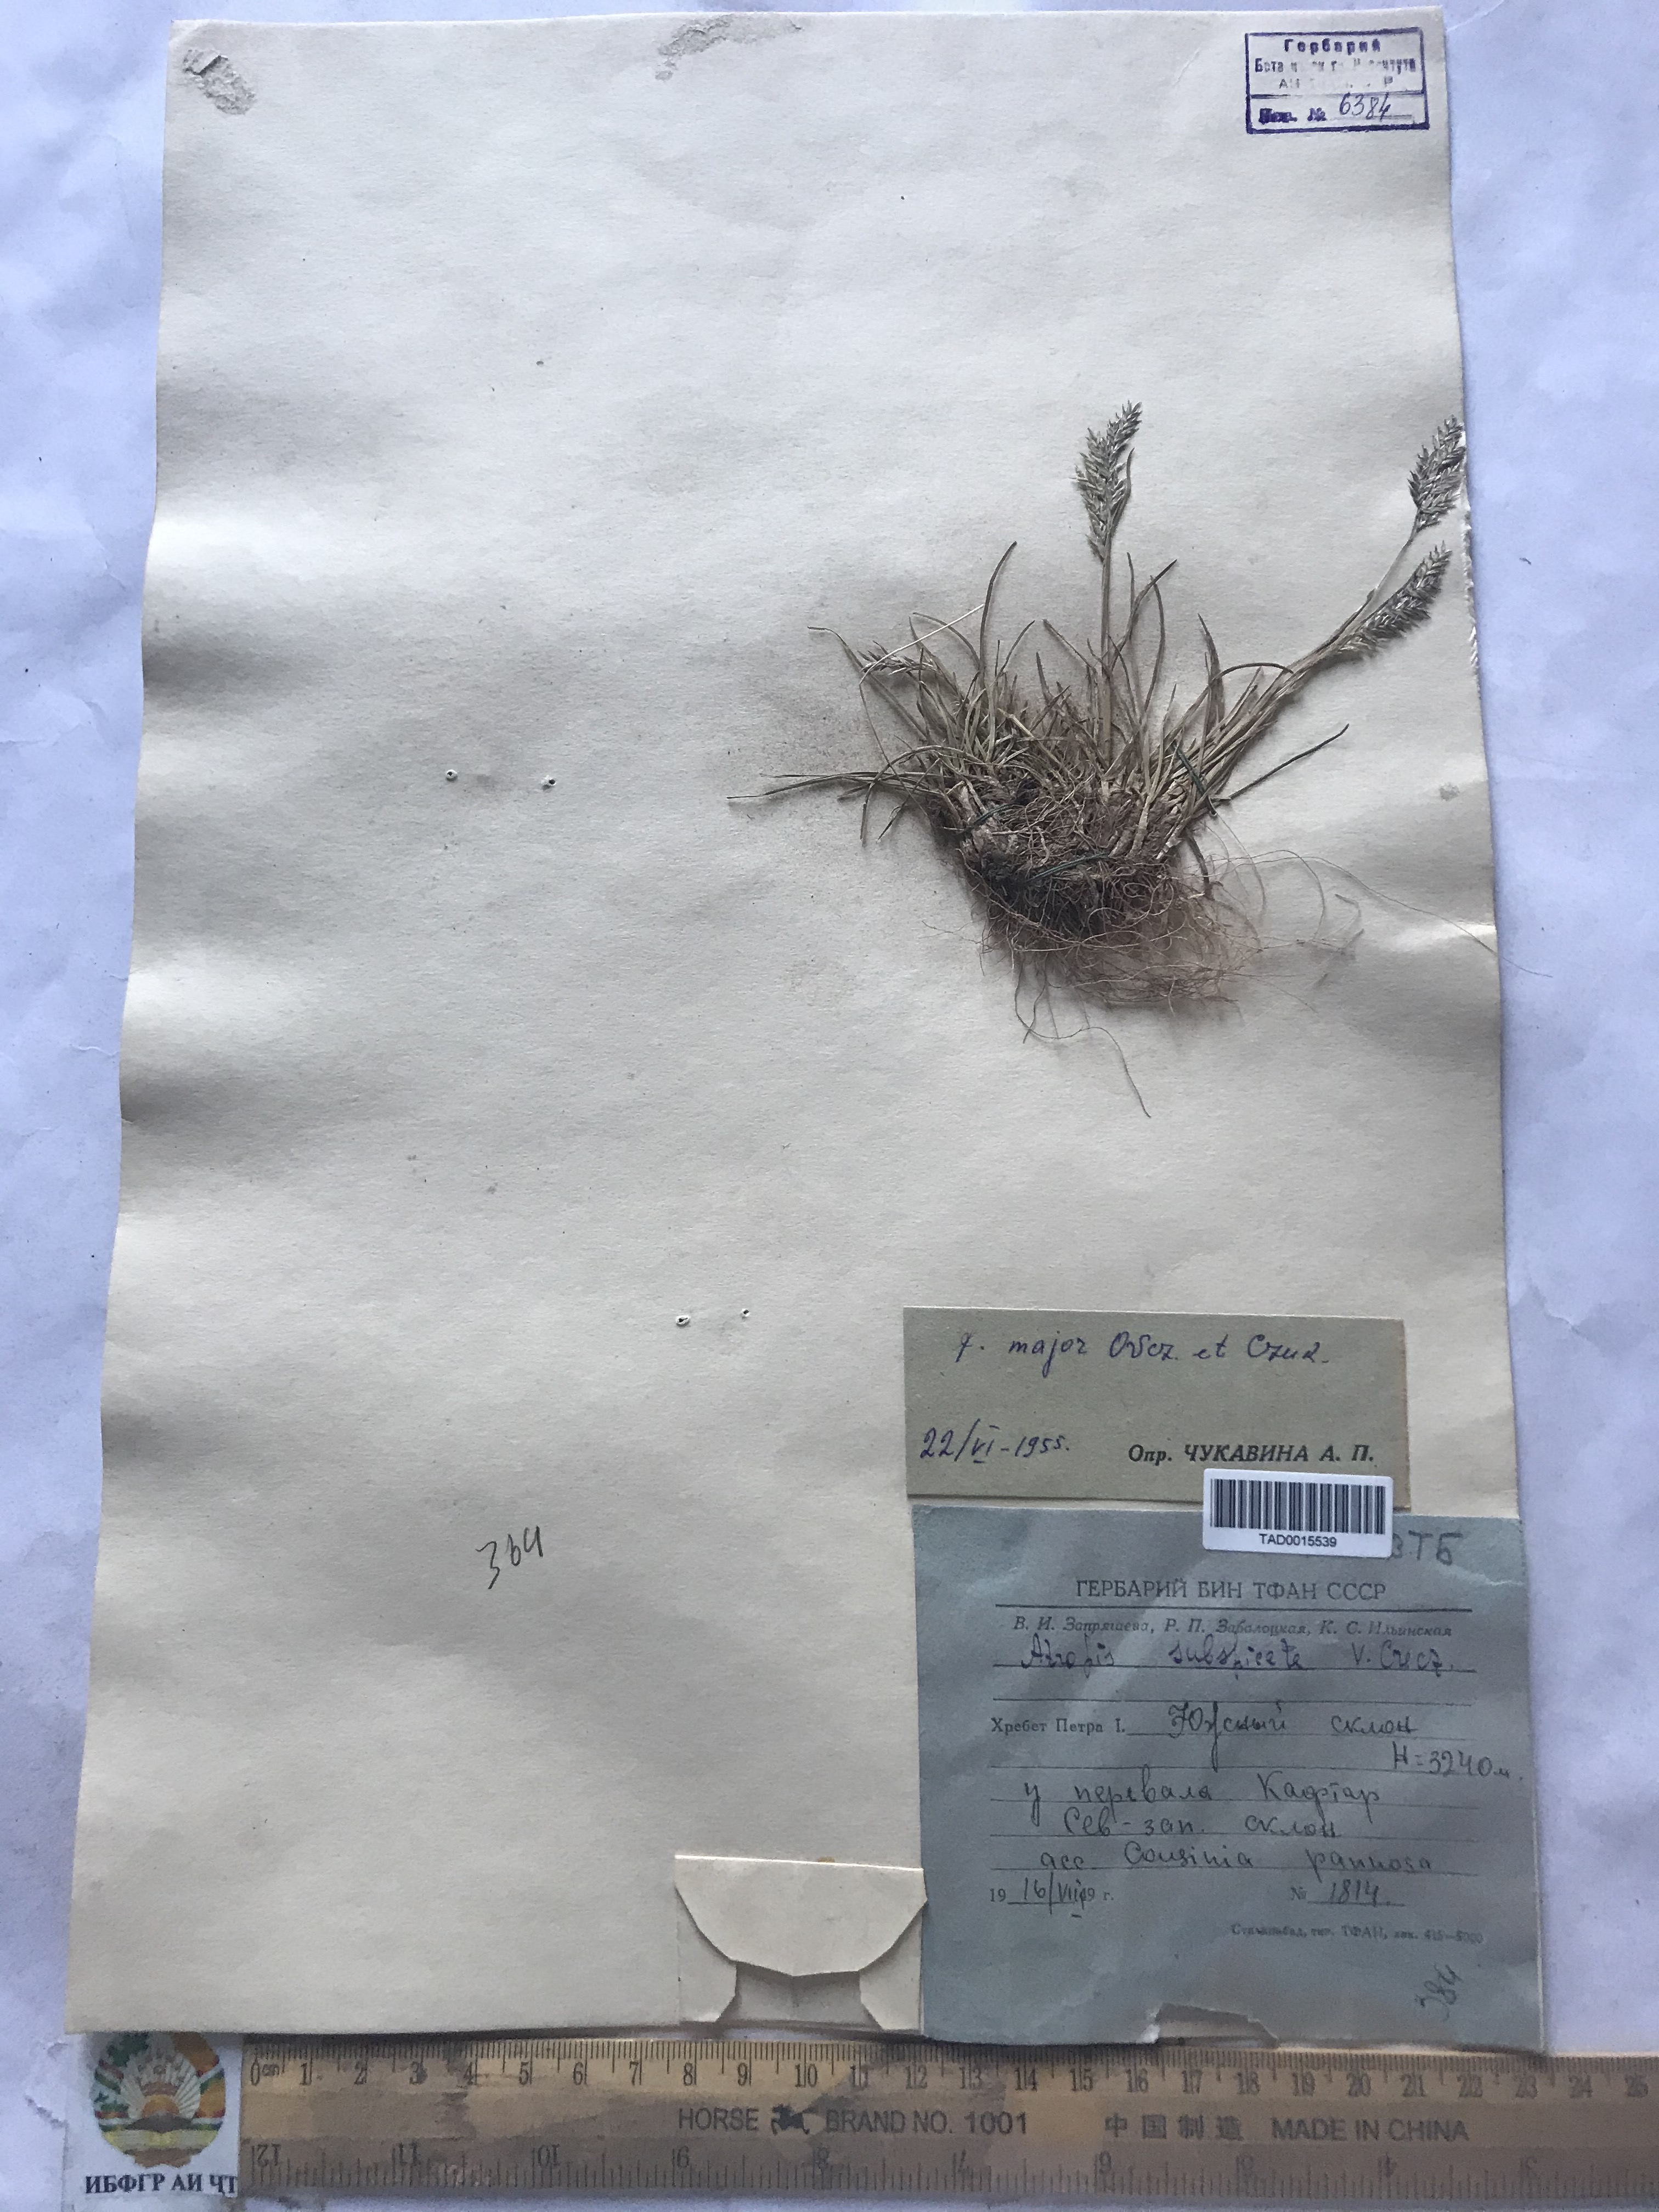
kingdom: Plantae
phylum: Tracheophyta
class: Liliopsida
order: Poales
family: Poaceae
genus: Puccinellia
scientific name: Puccinellia subspicata
